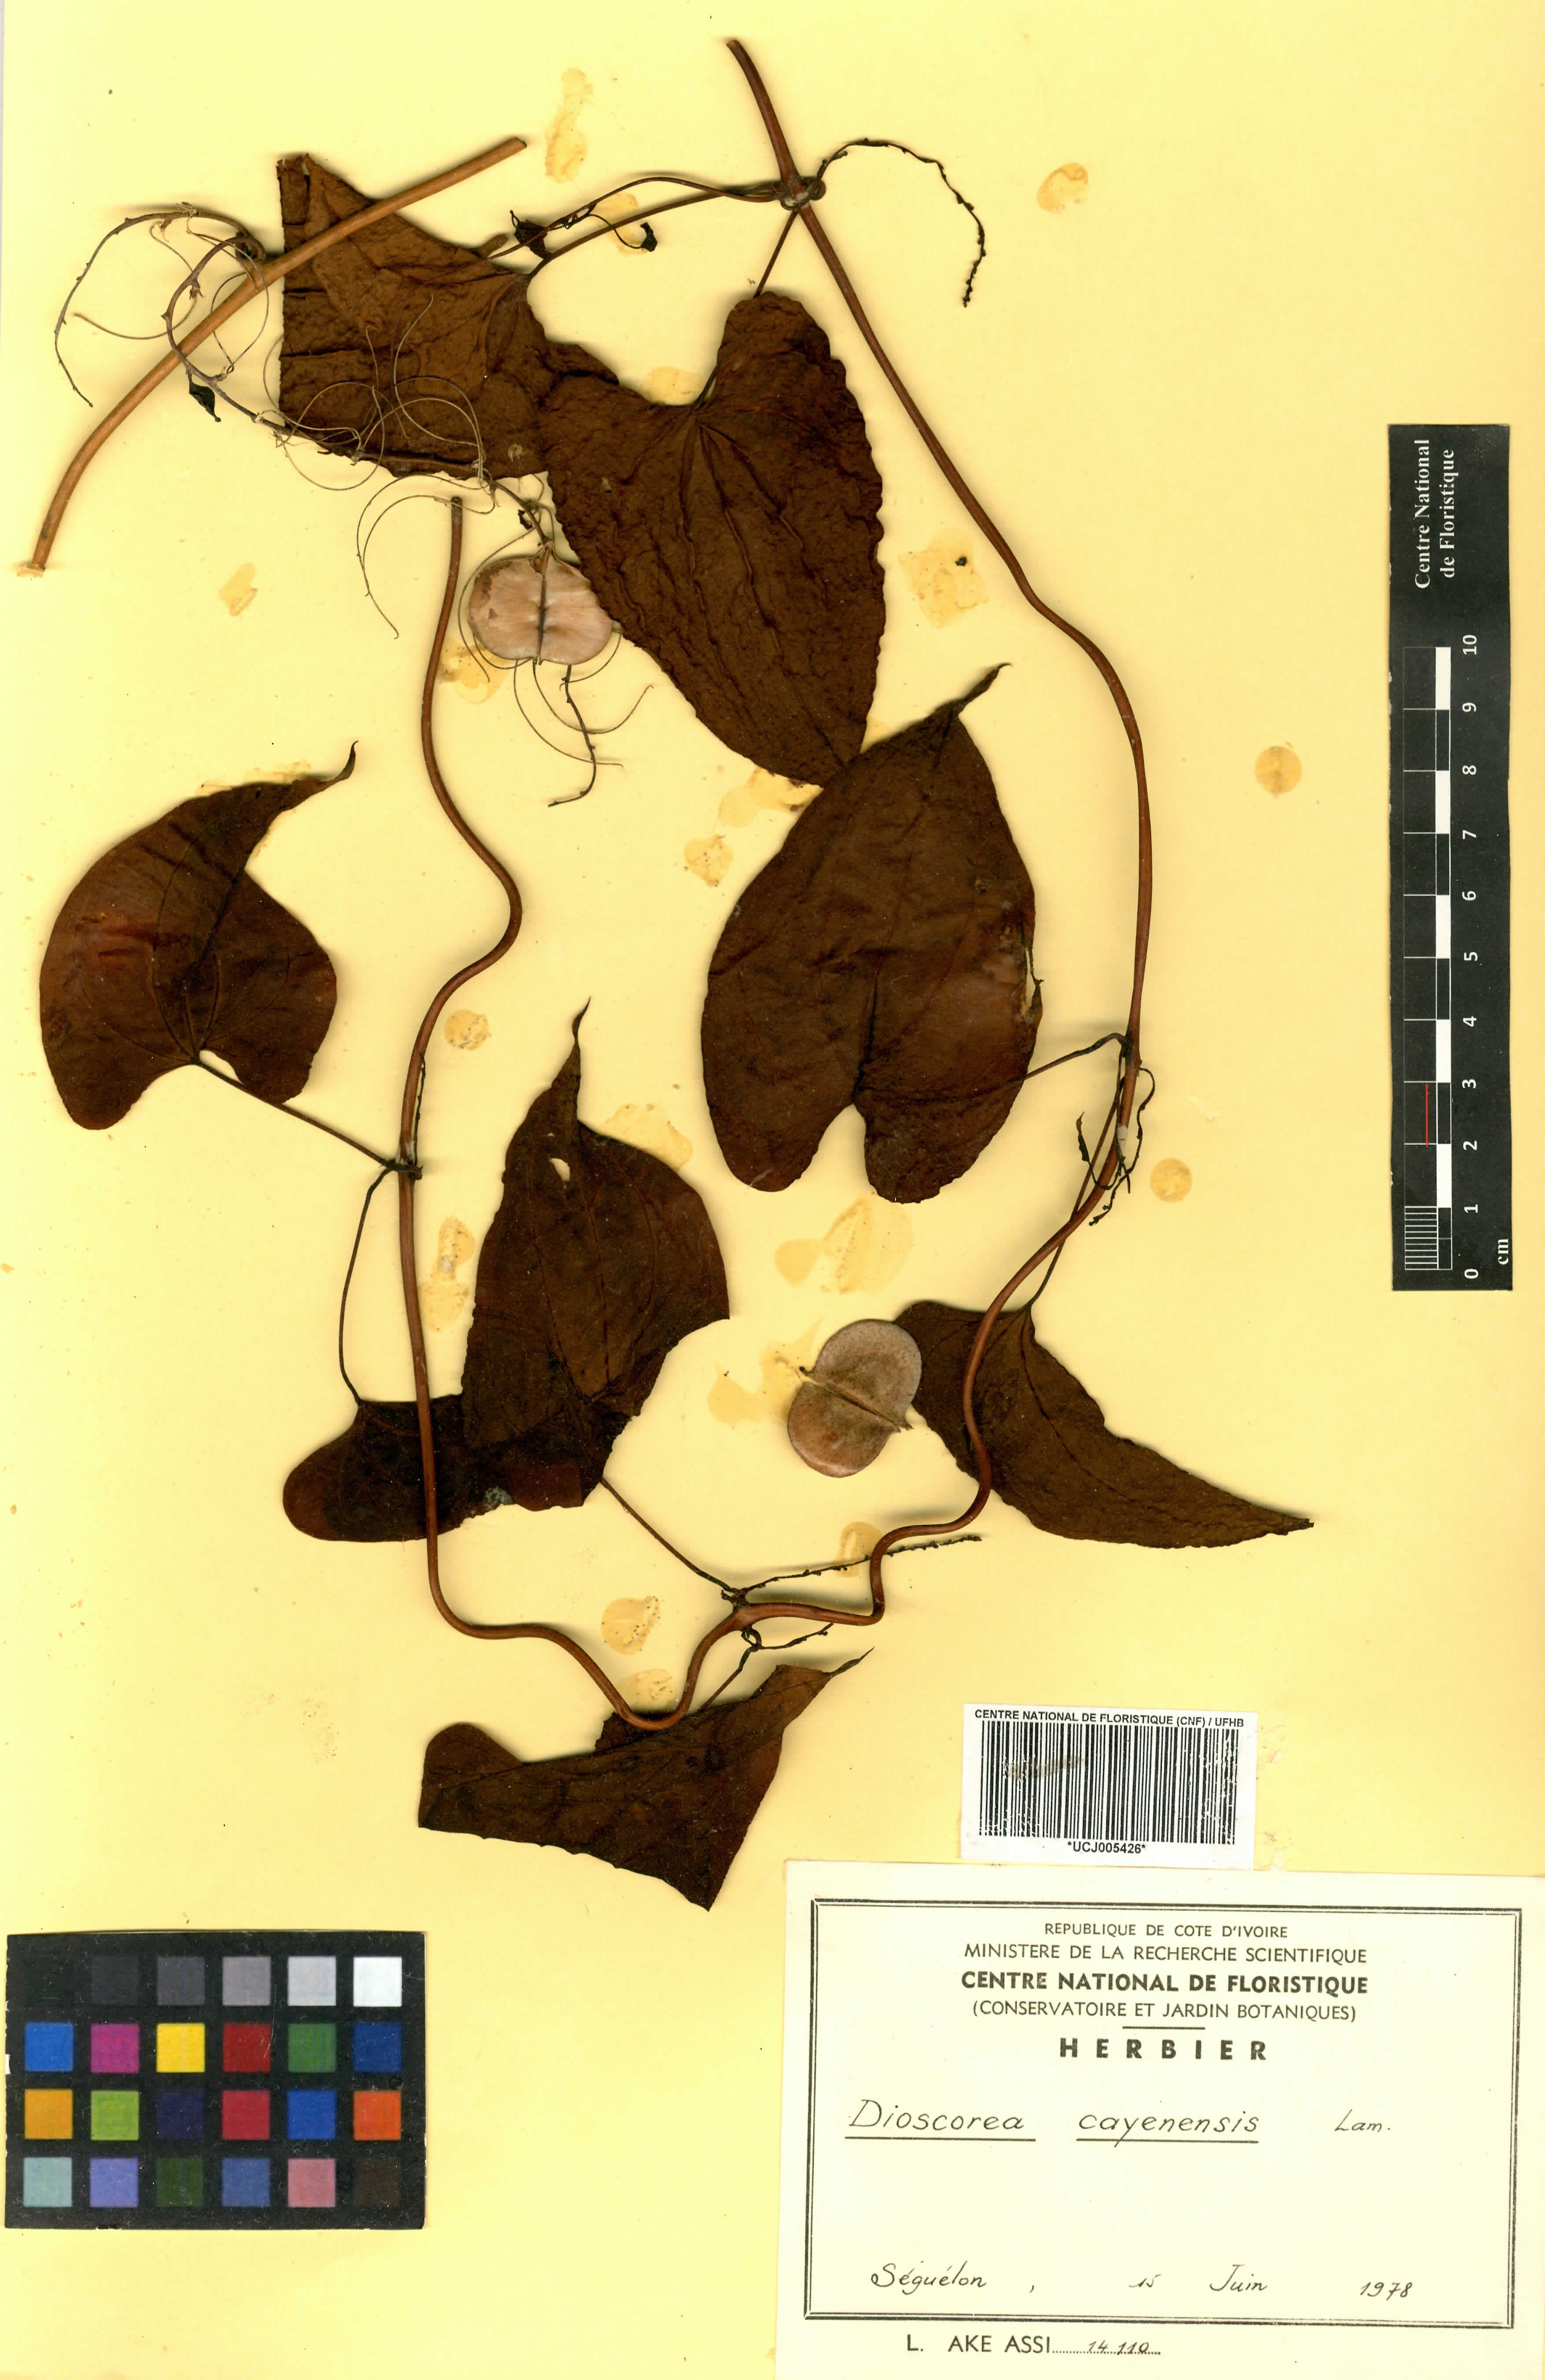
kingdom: Plantae
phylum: Tracheophyta
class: Liliopsida
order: Dioscoreales
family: Dioscoreaceae
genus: Dioscorea
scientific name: Dioscorea cayenensis
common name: Attoto yam
